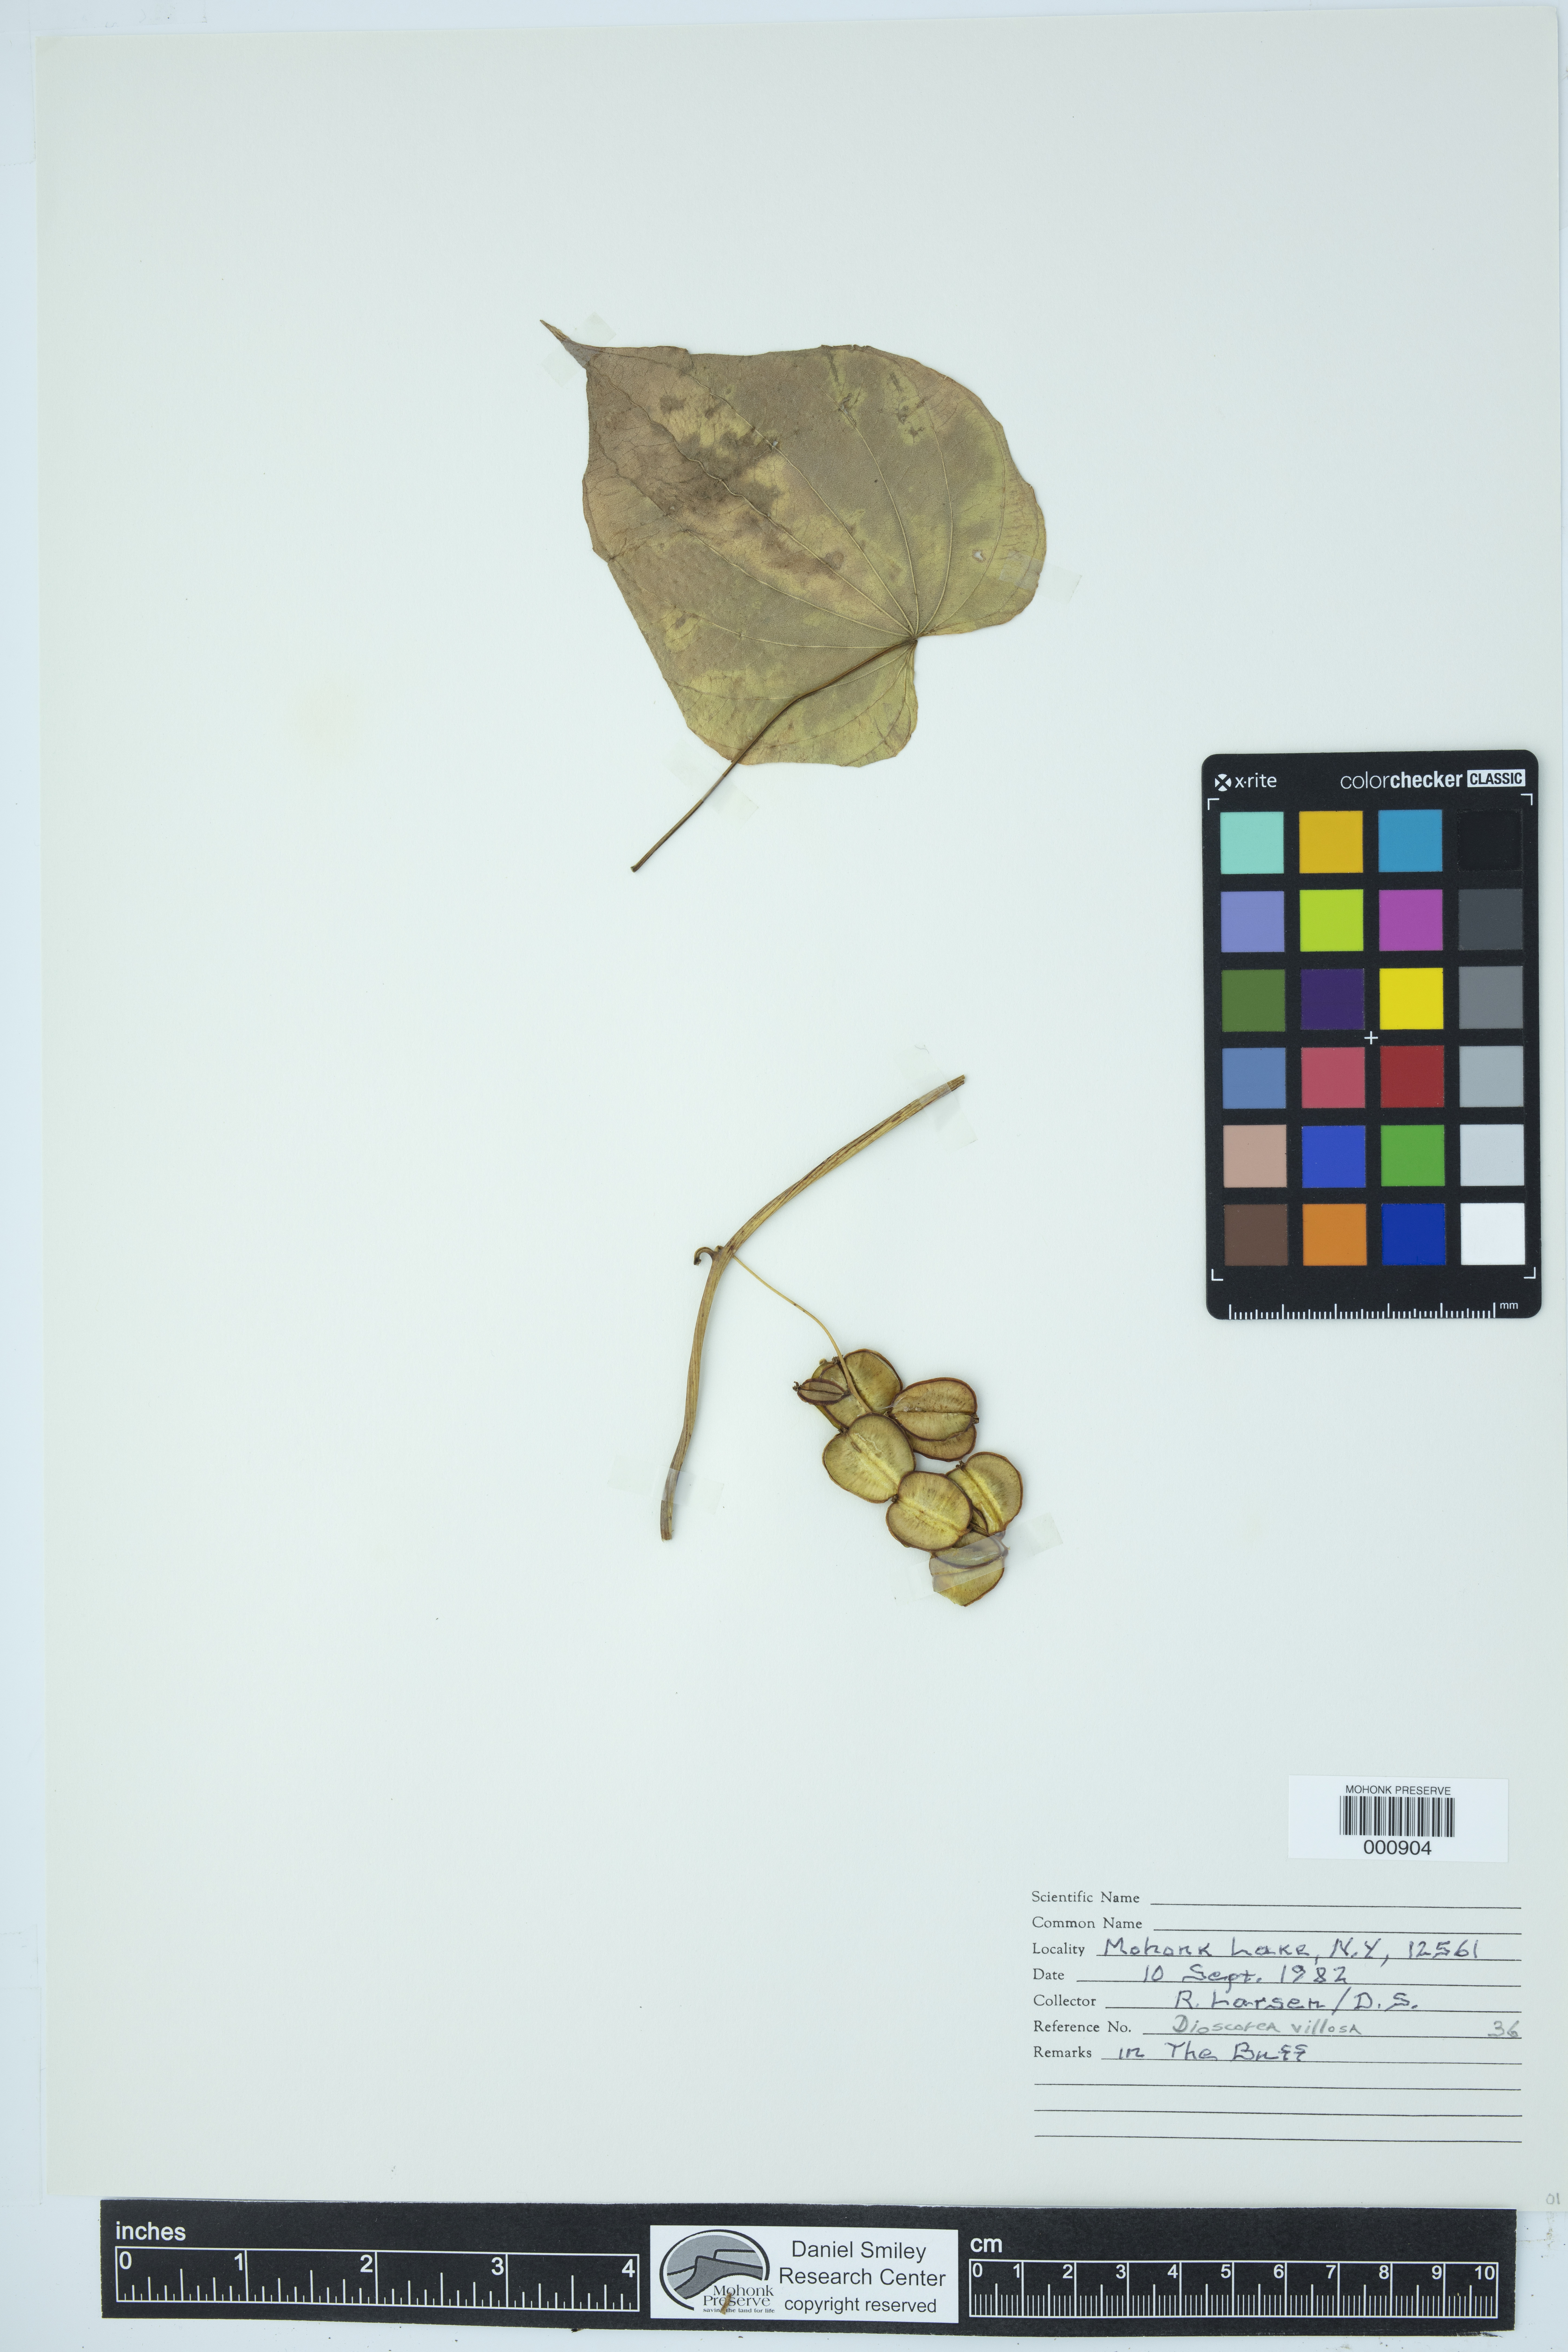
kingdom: Plantae
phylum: Tracheophyta
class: Liliopsida
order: Dioscoreales
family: Dioscoreaceae
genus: Dioscorea
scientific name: Dioscorea villosa
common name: Wild yam
